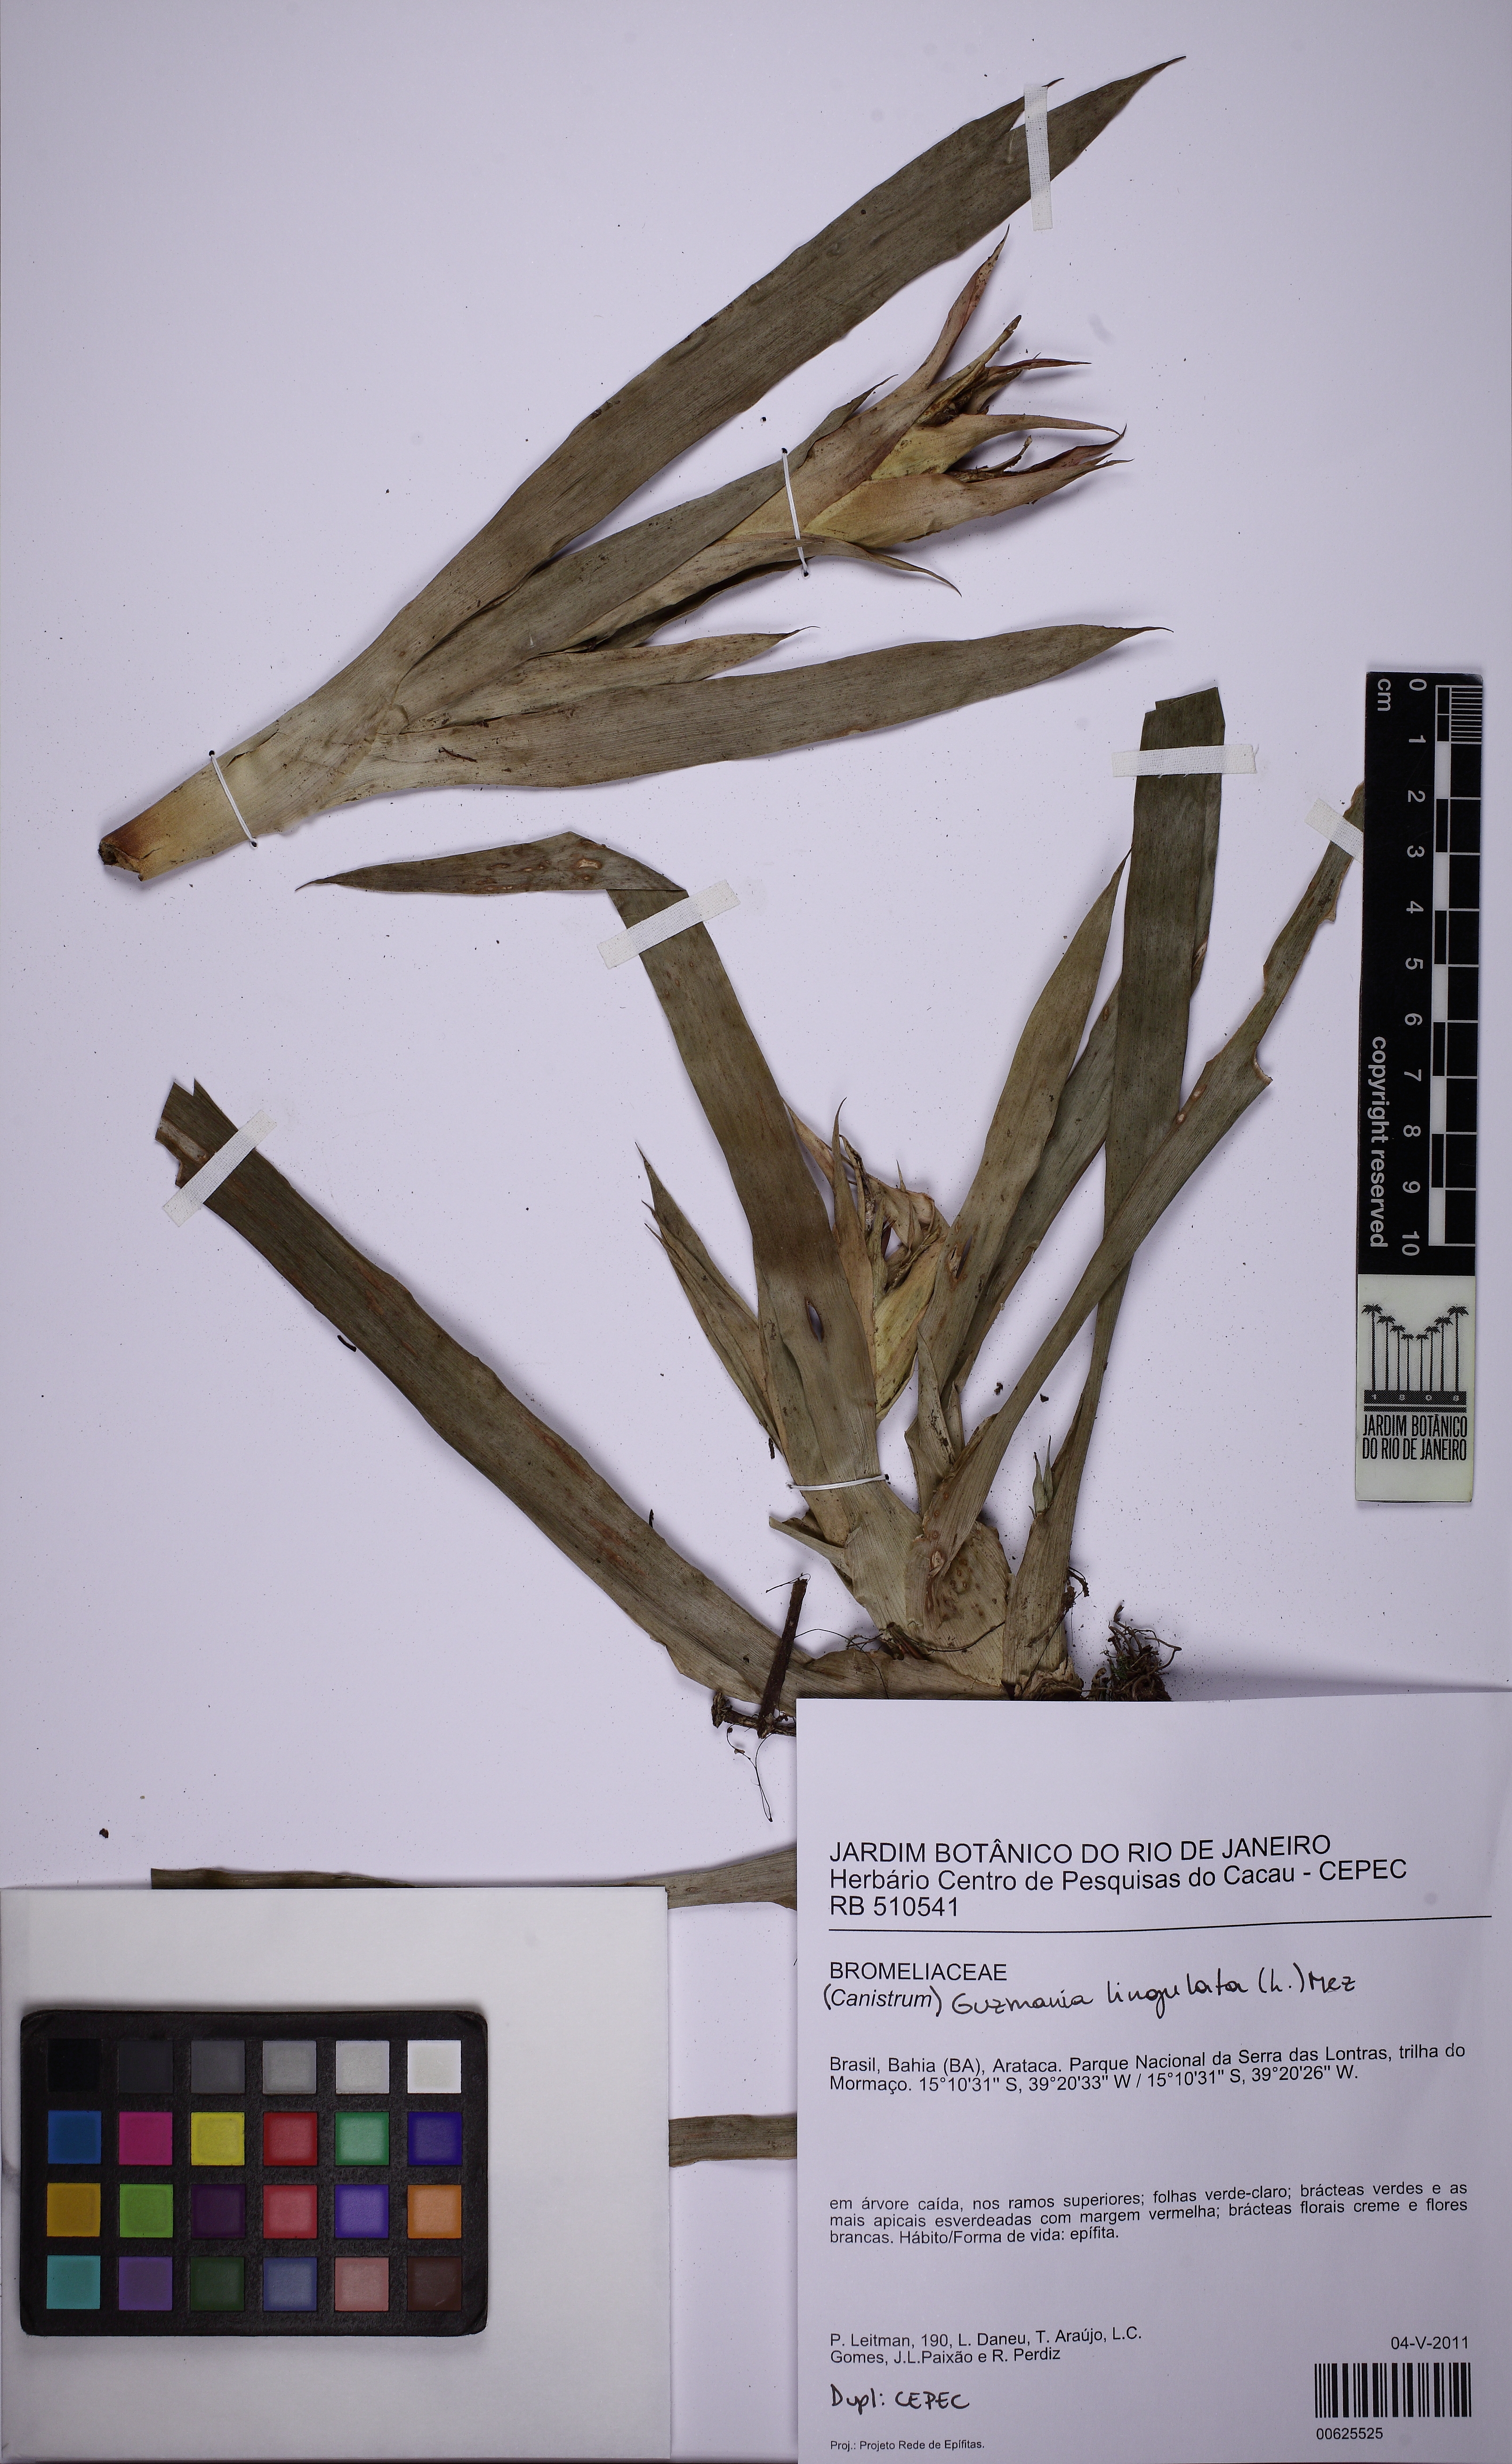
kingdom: Plantae
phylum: Tracheophyta
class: Liliopsida
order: Poales
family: Bromeliaceae
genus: Guzmania
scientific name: Guzmania lingulata
